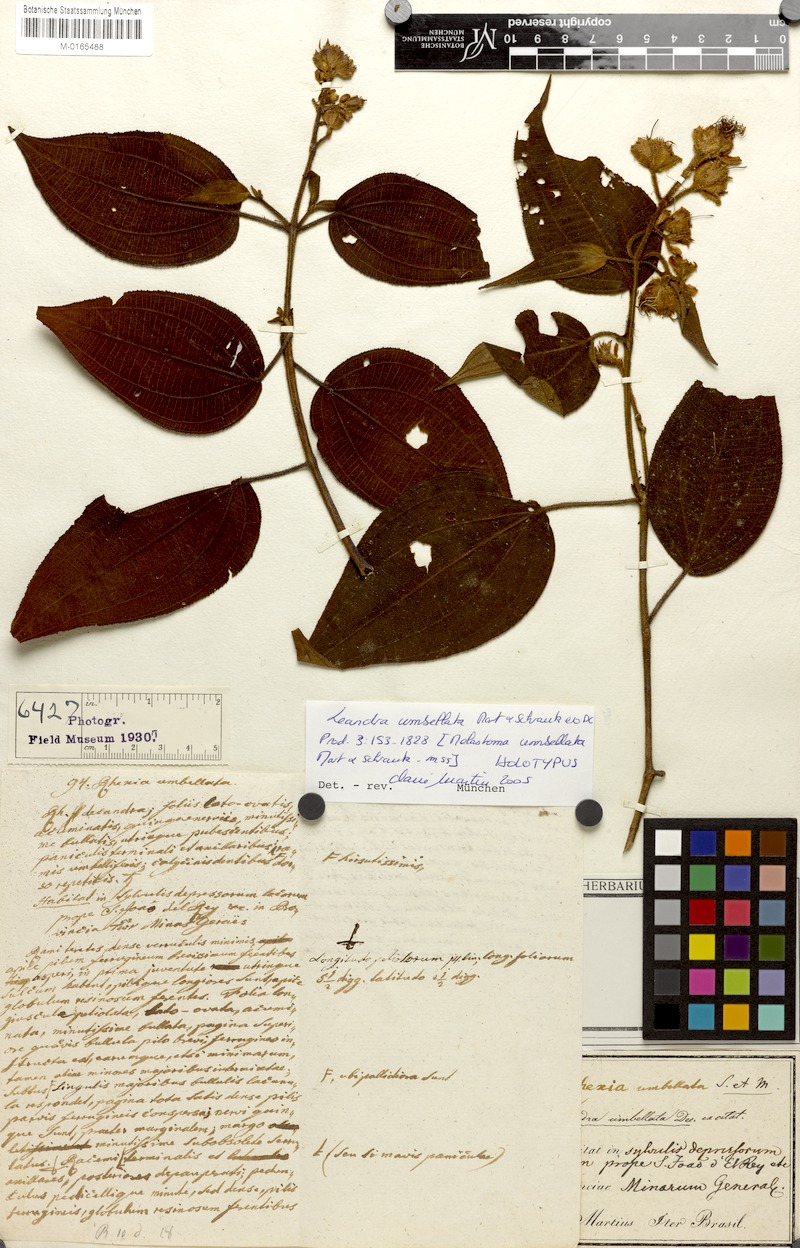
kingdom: Plantae
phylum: Tracheophyta
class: Magnoliopsida
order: Myrtales
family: Melastomataceae
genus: Miconia
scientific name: Miconia leaumbellata
